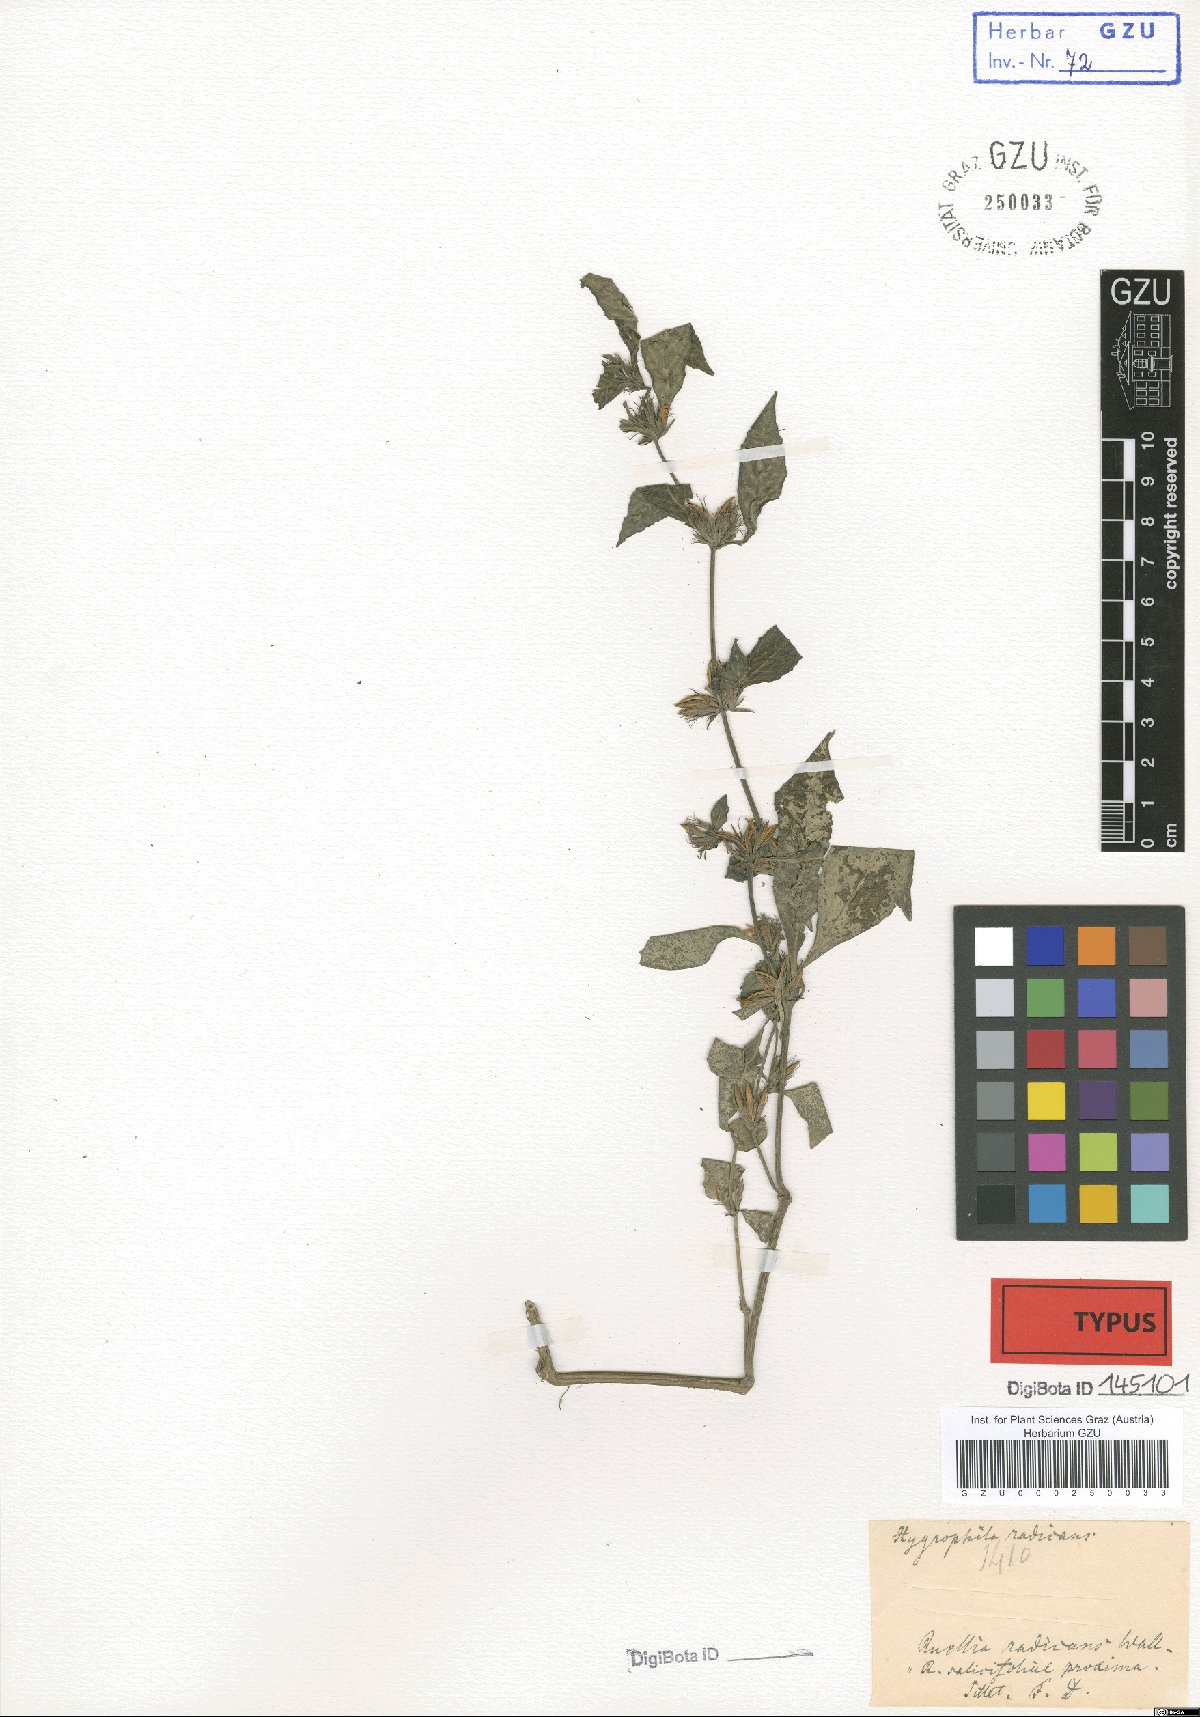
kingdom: Plantae
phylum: Tracheophyta
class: Magnoliopsida
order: Lamiales
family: Acanthaceae
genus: Hygrophila
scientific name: Hygrophila ringens
